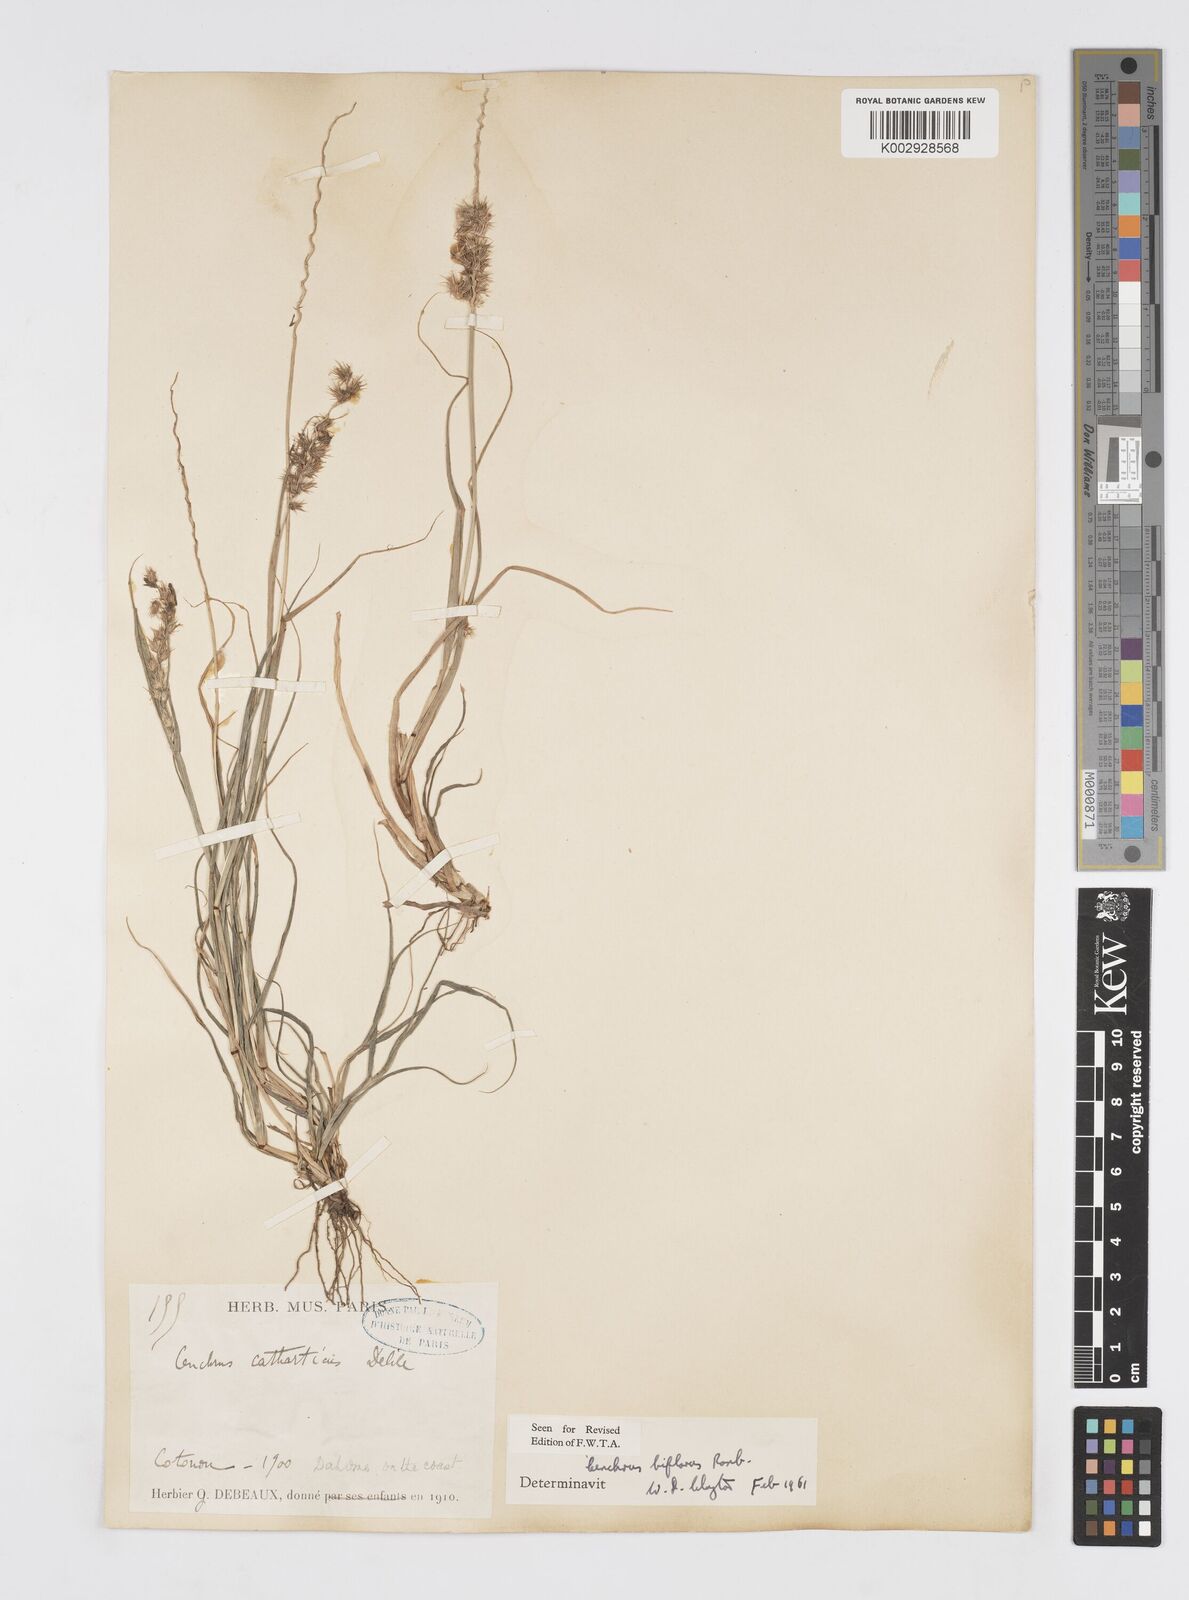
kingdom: Plantae
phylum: Tracheophyta
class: Liliopsida
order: Poales
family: Poaceae
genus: Cenchrus
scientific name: Cenchrus biflorus
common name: Indian sandbur
